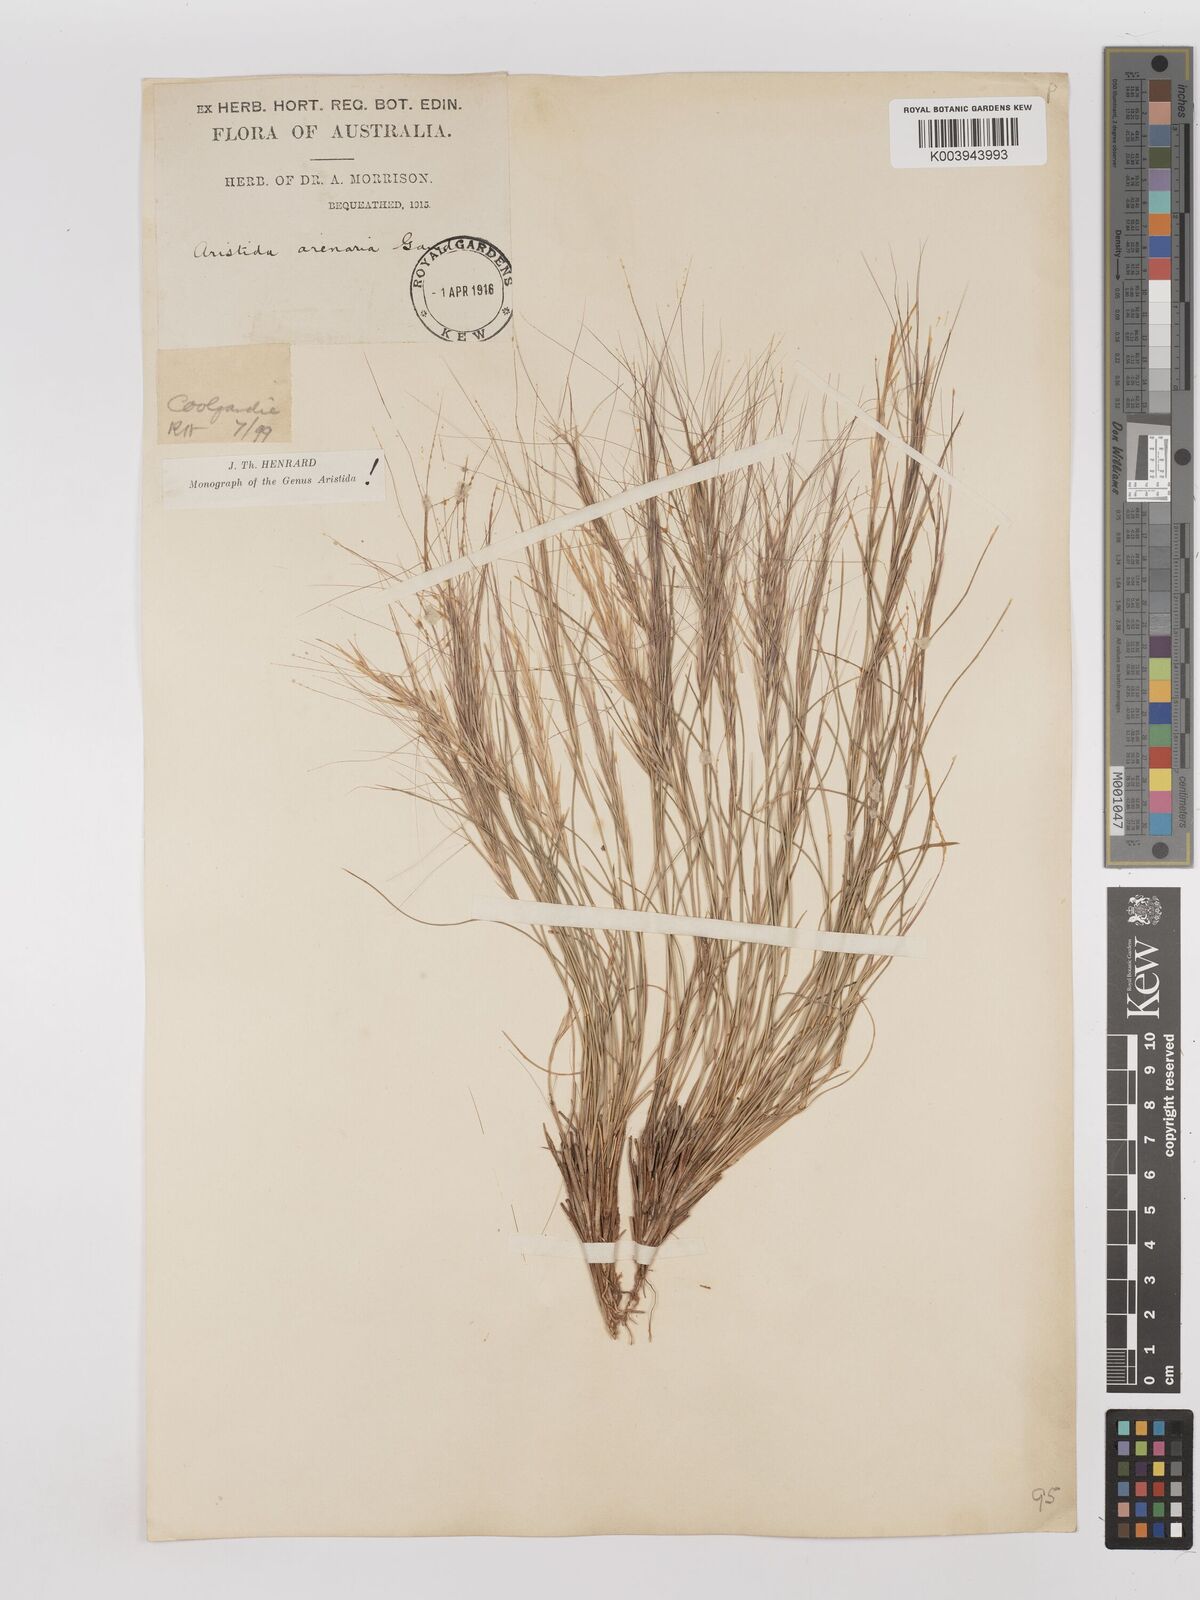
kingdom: Plantae
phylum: Tracheophyta
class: Liliopsida
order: Poales
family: Poaceae
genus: Aristida
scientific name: Aristida contorta
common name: Bunch kerosene grass
